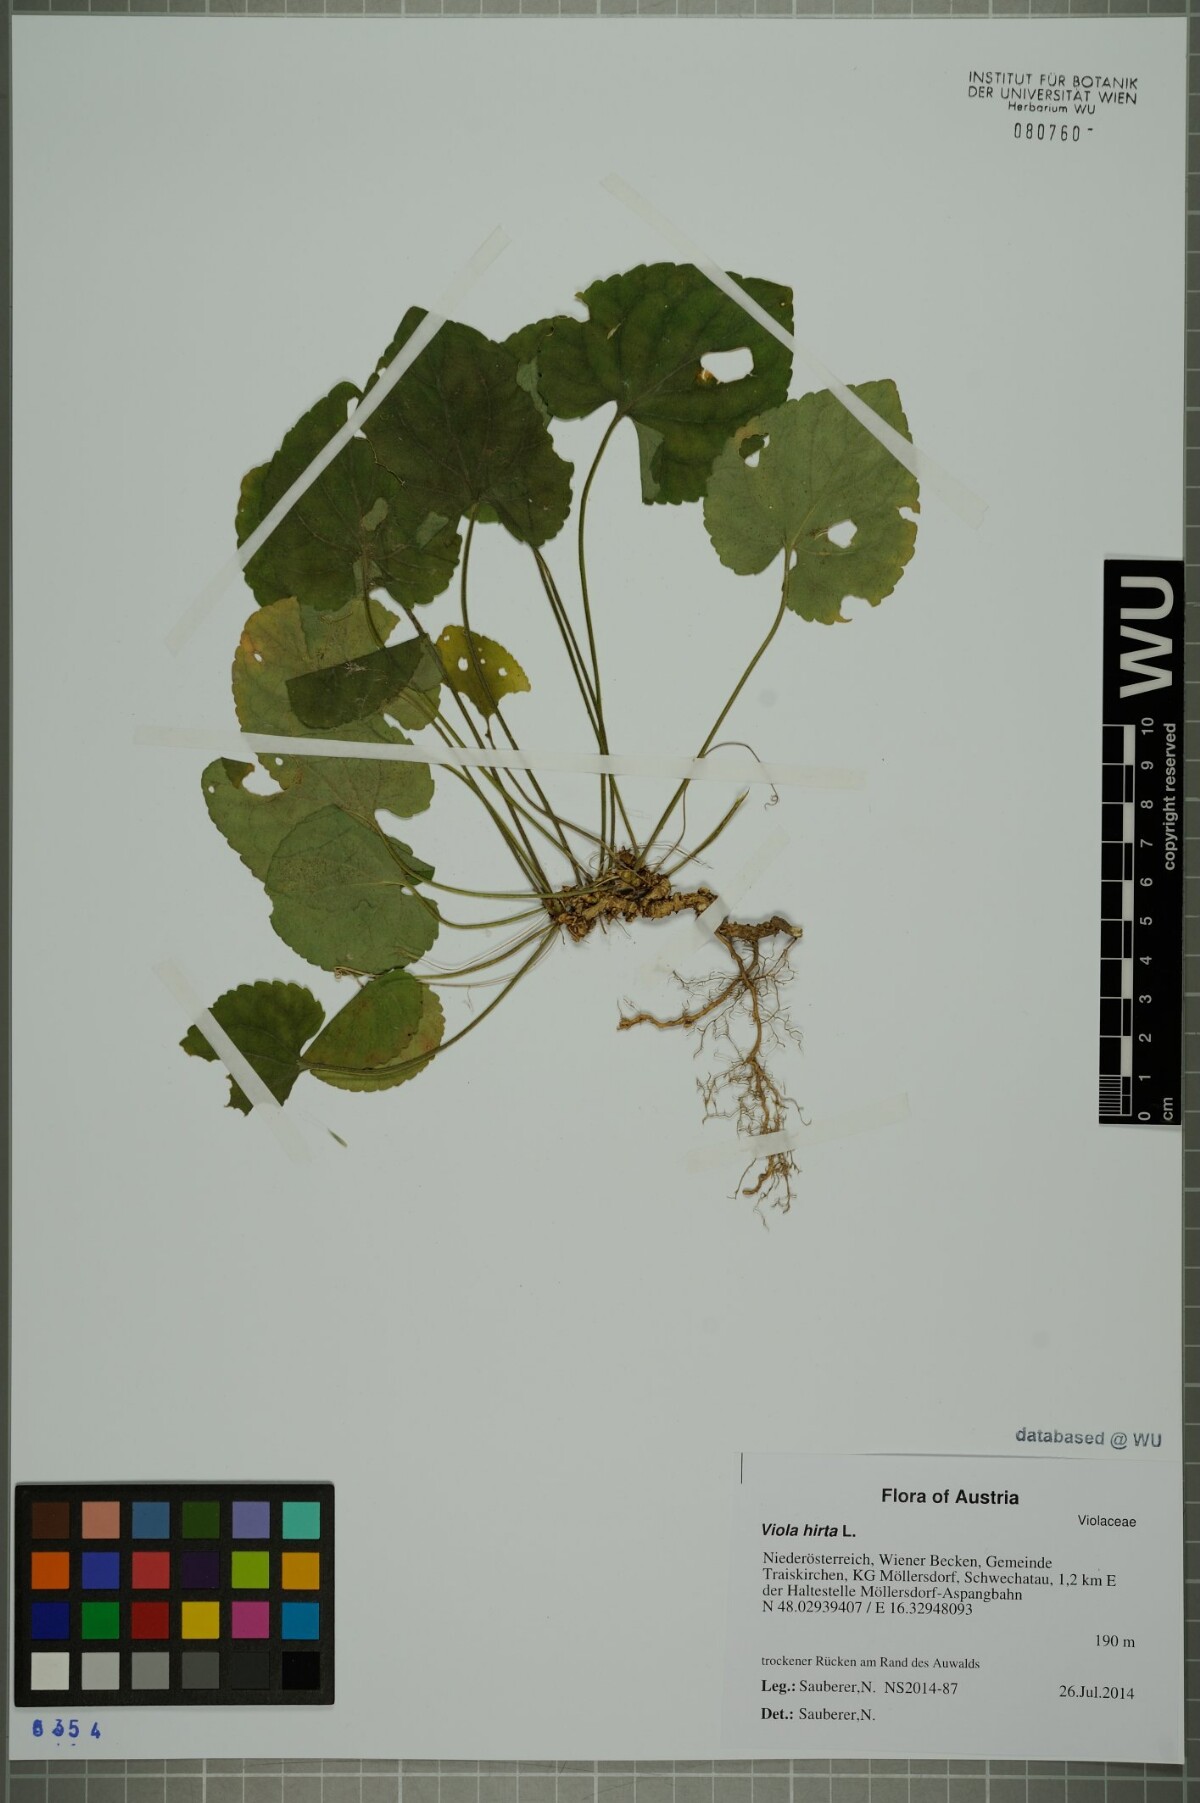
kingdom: Plantae
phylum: Tracheophyta
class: Magnoliopsida
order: Malpighiales
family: Violaceae
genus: Viola
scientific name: Viola hirta
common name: Hairy violet
